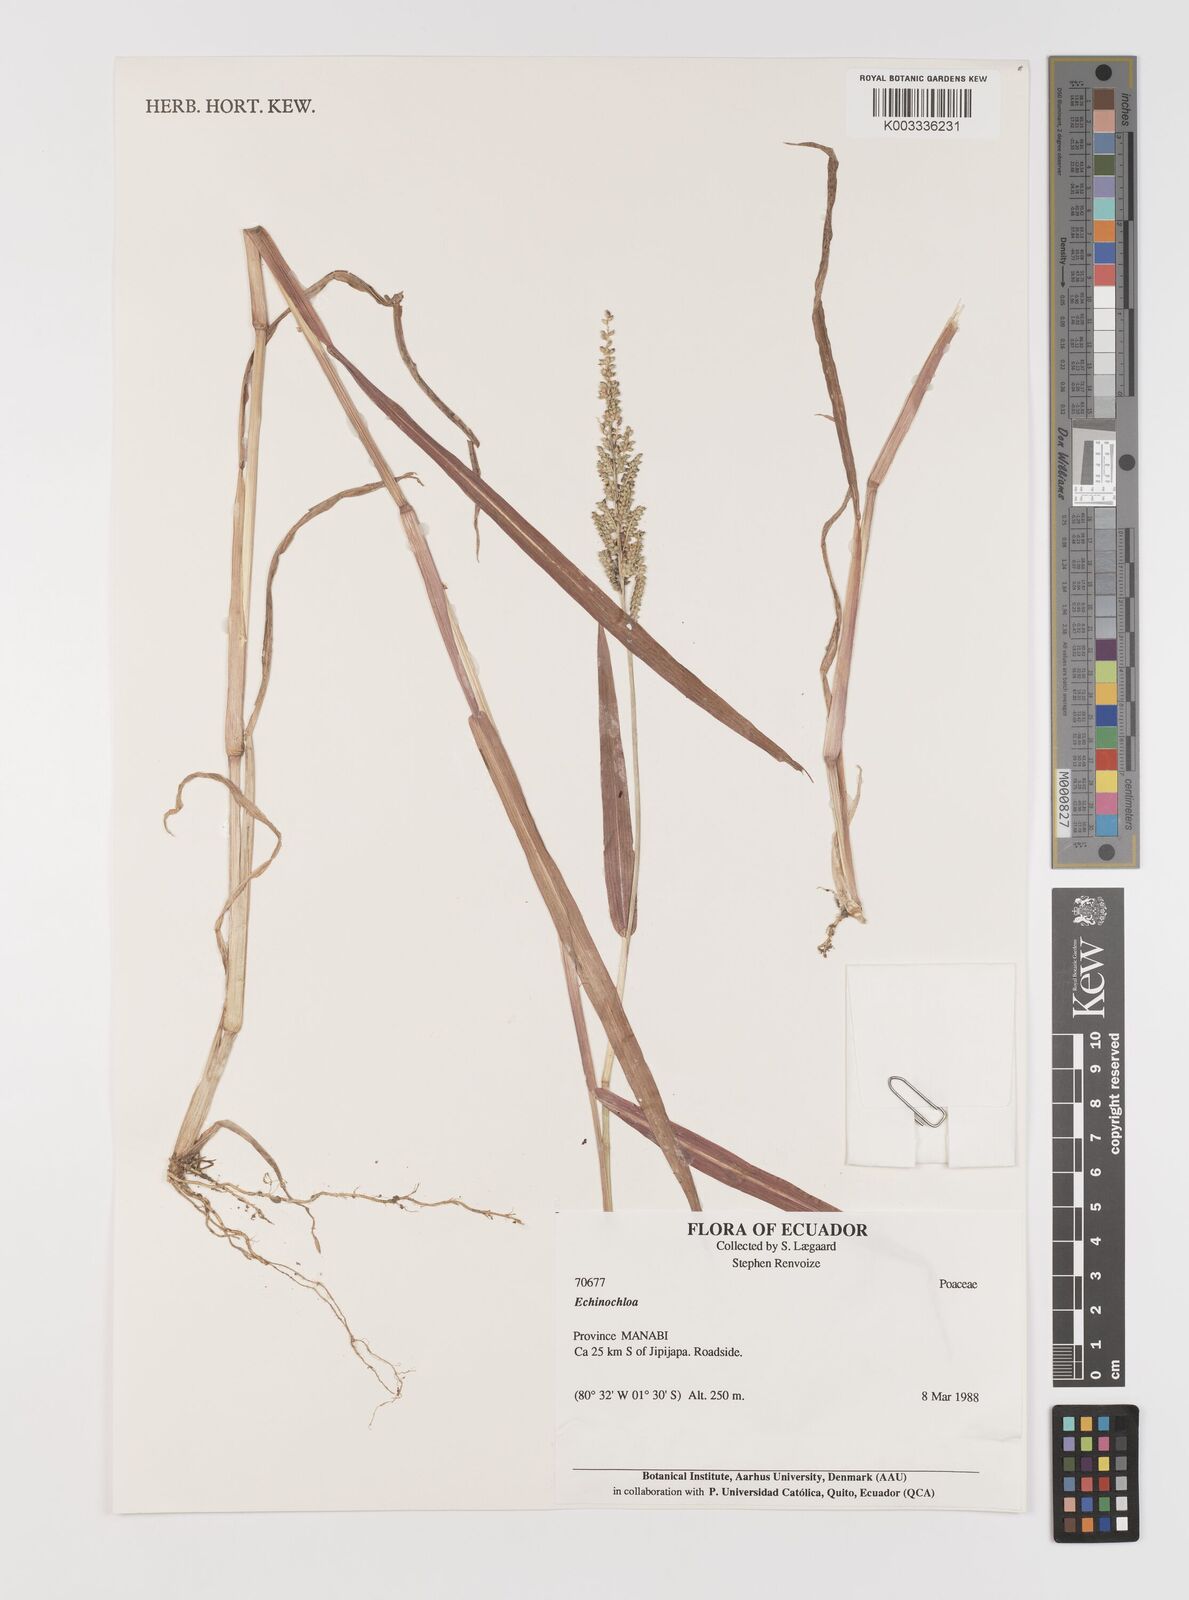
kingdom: Plantae
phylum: Tracheophyta
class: Liliopsida
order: Poales
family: Poaceae
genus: Echinochloa
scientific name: Echinochloa colonum
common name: Jungle rice
